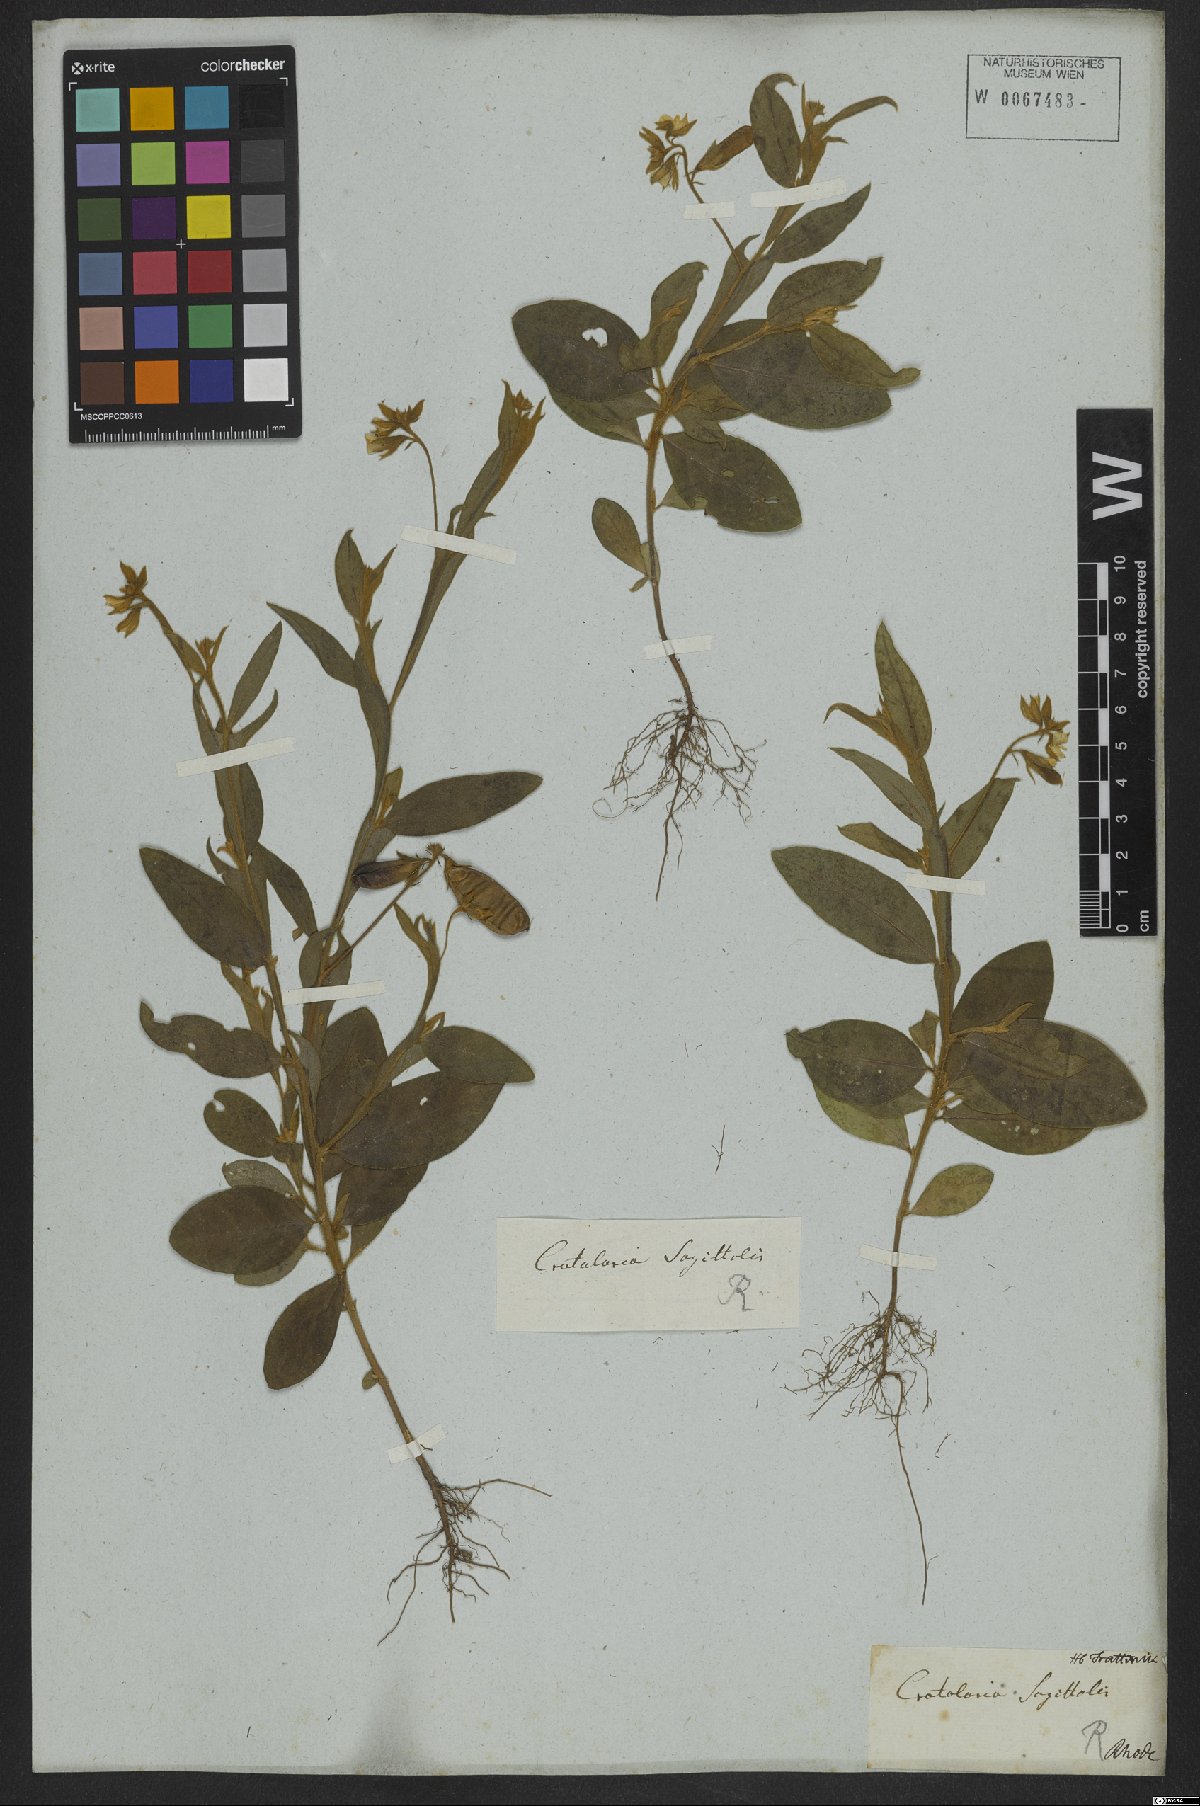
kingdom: Plantae
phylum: Tracheophyta
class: Magnoliopsida
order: Fabales
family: Fabaceae
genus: Crotalaria
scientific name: Crotalaria stipularia
